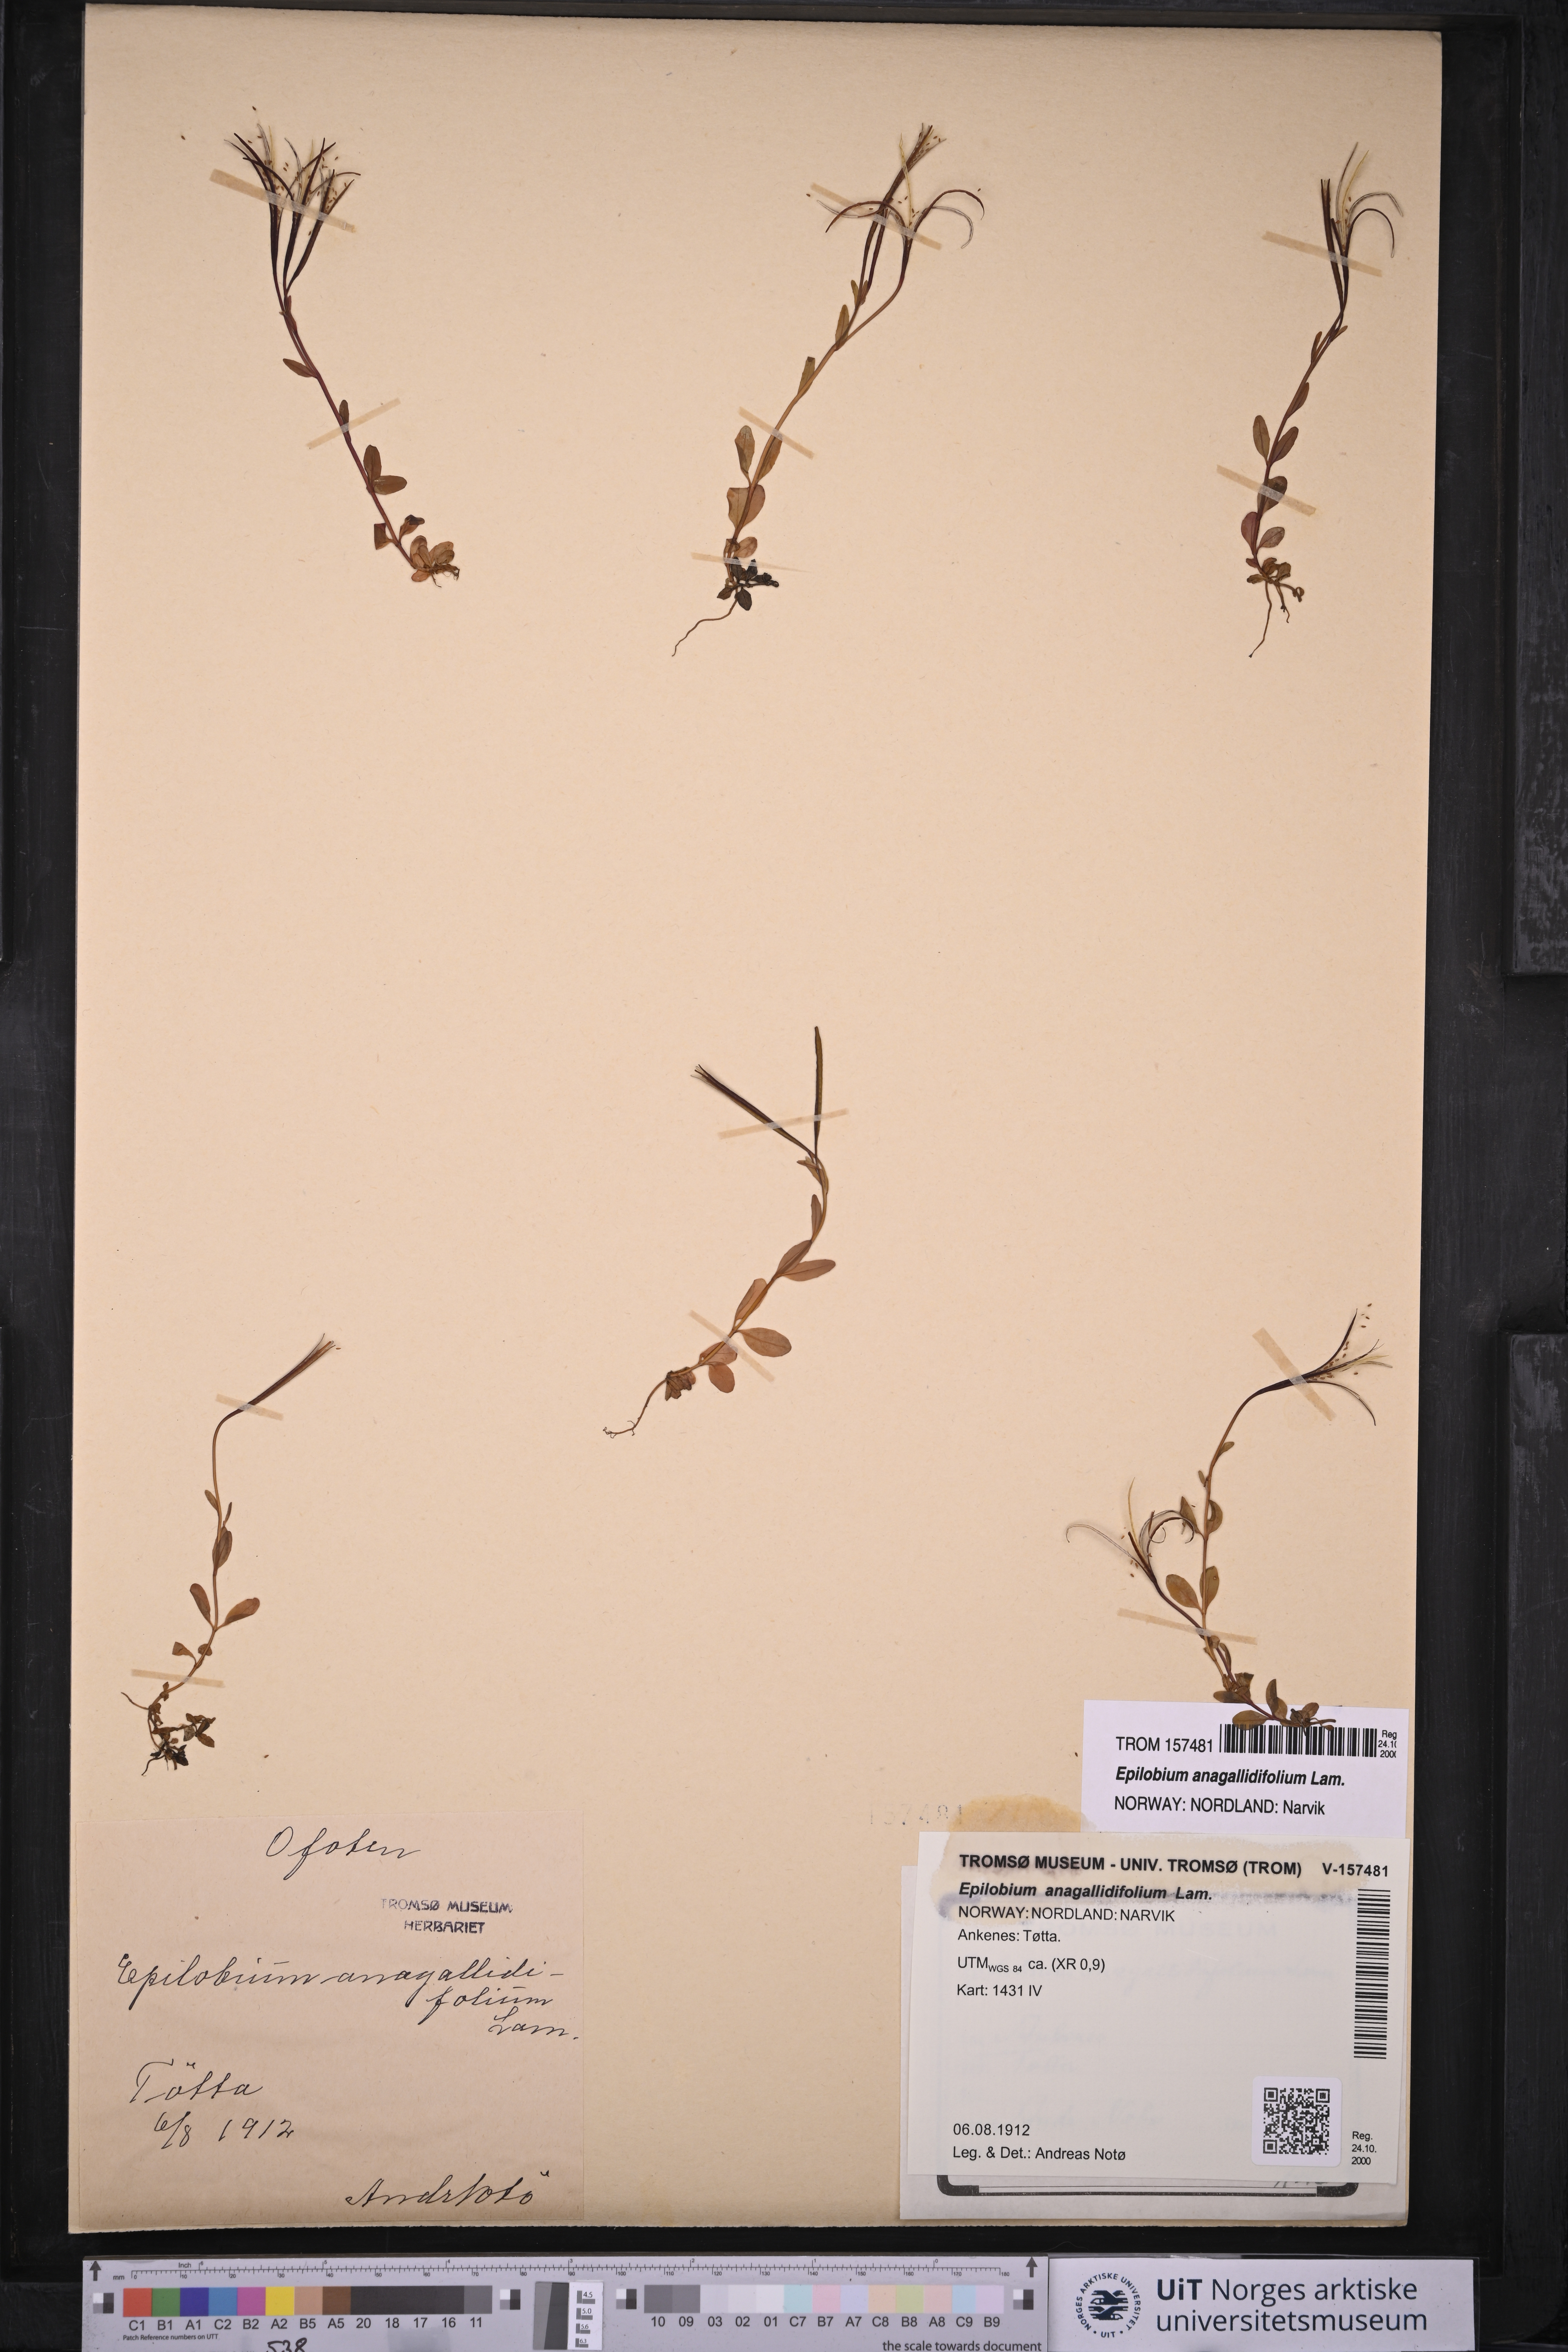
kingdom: Plantae
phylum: Tracheophyta
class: Magnoliopsida
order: Myrtales
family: Onagraceae
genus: Epilobium
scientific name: Epilobium anagallidifolium
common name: Alpine willowherb
